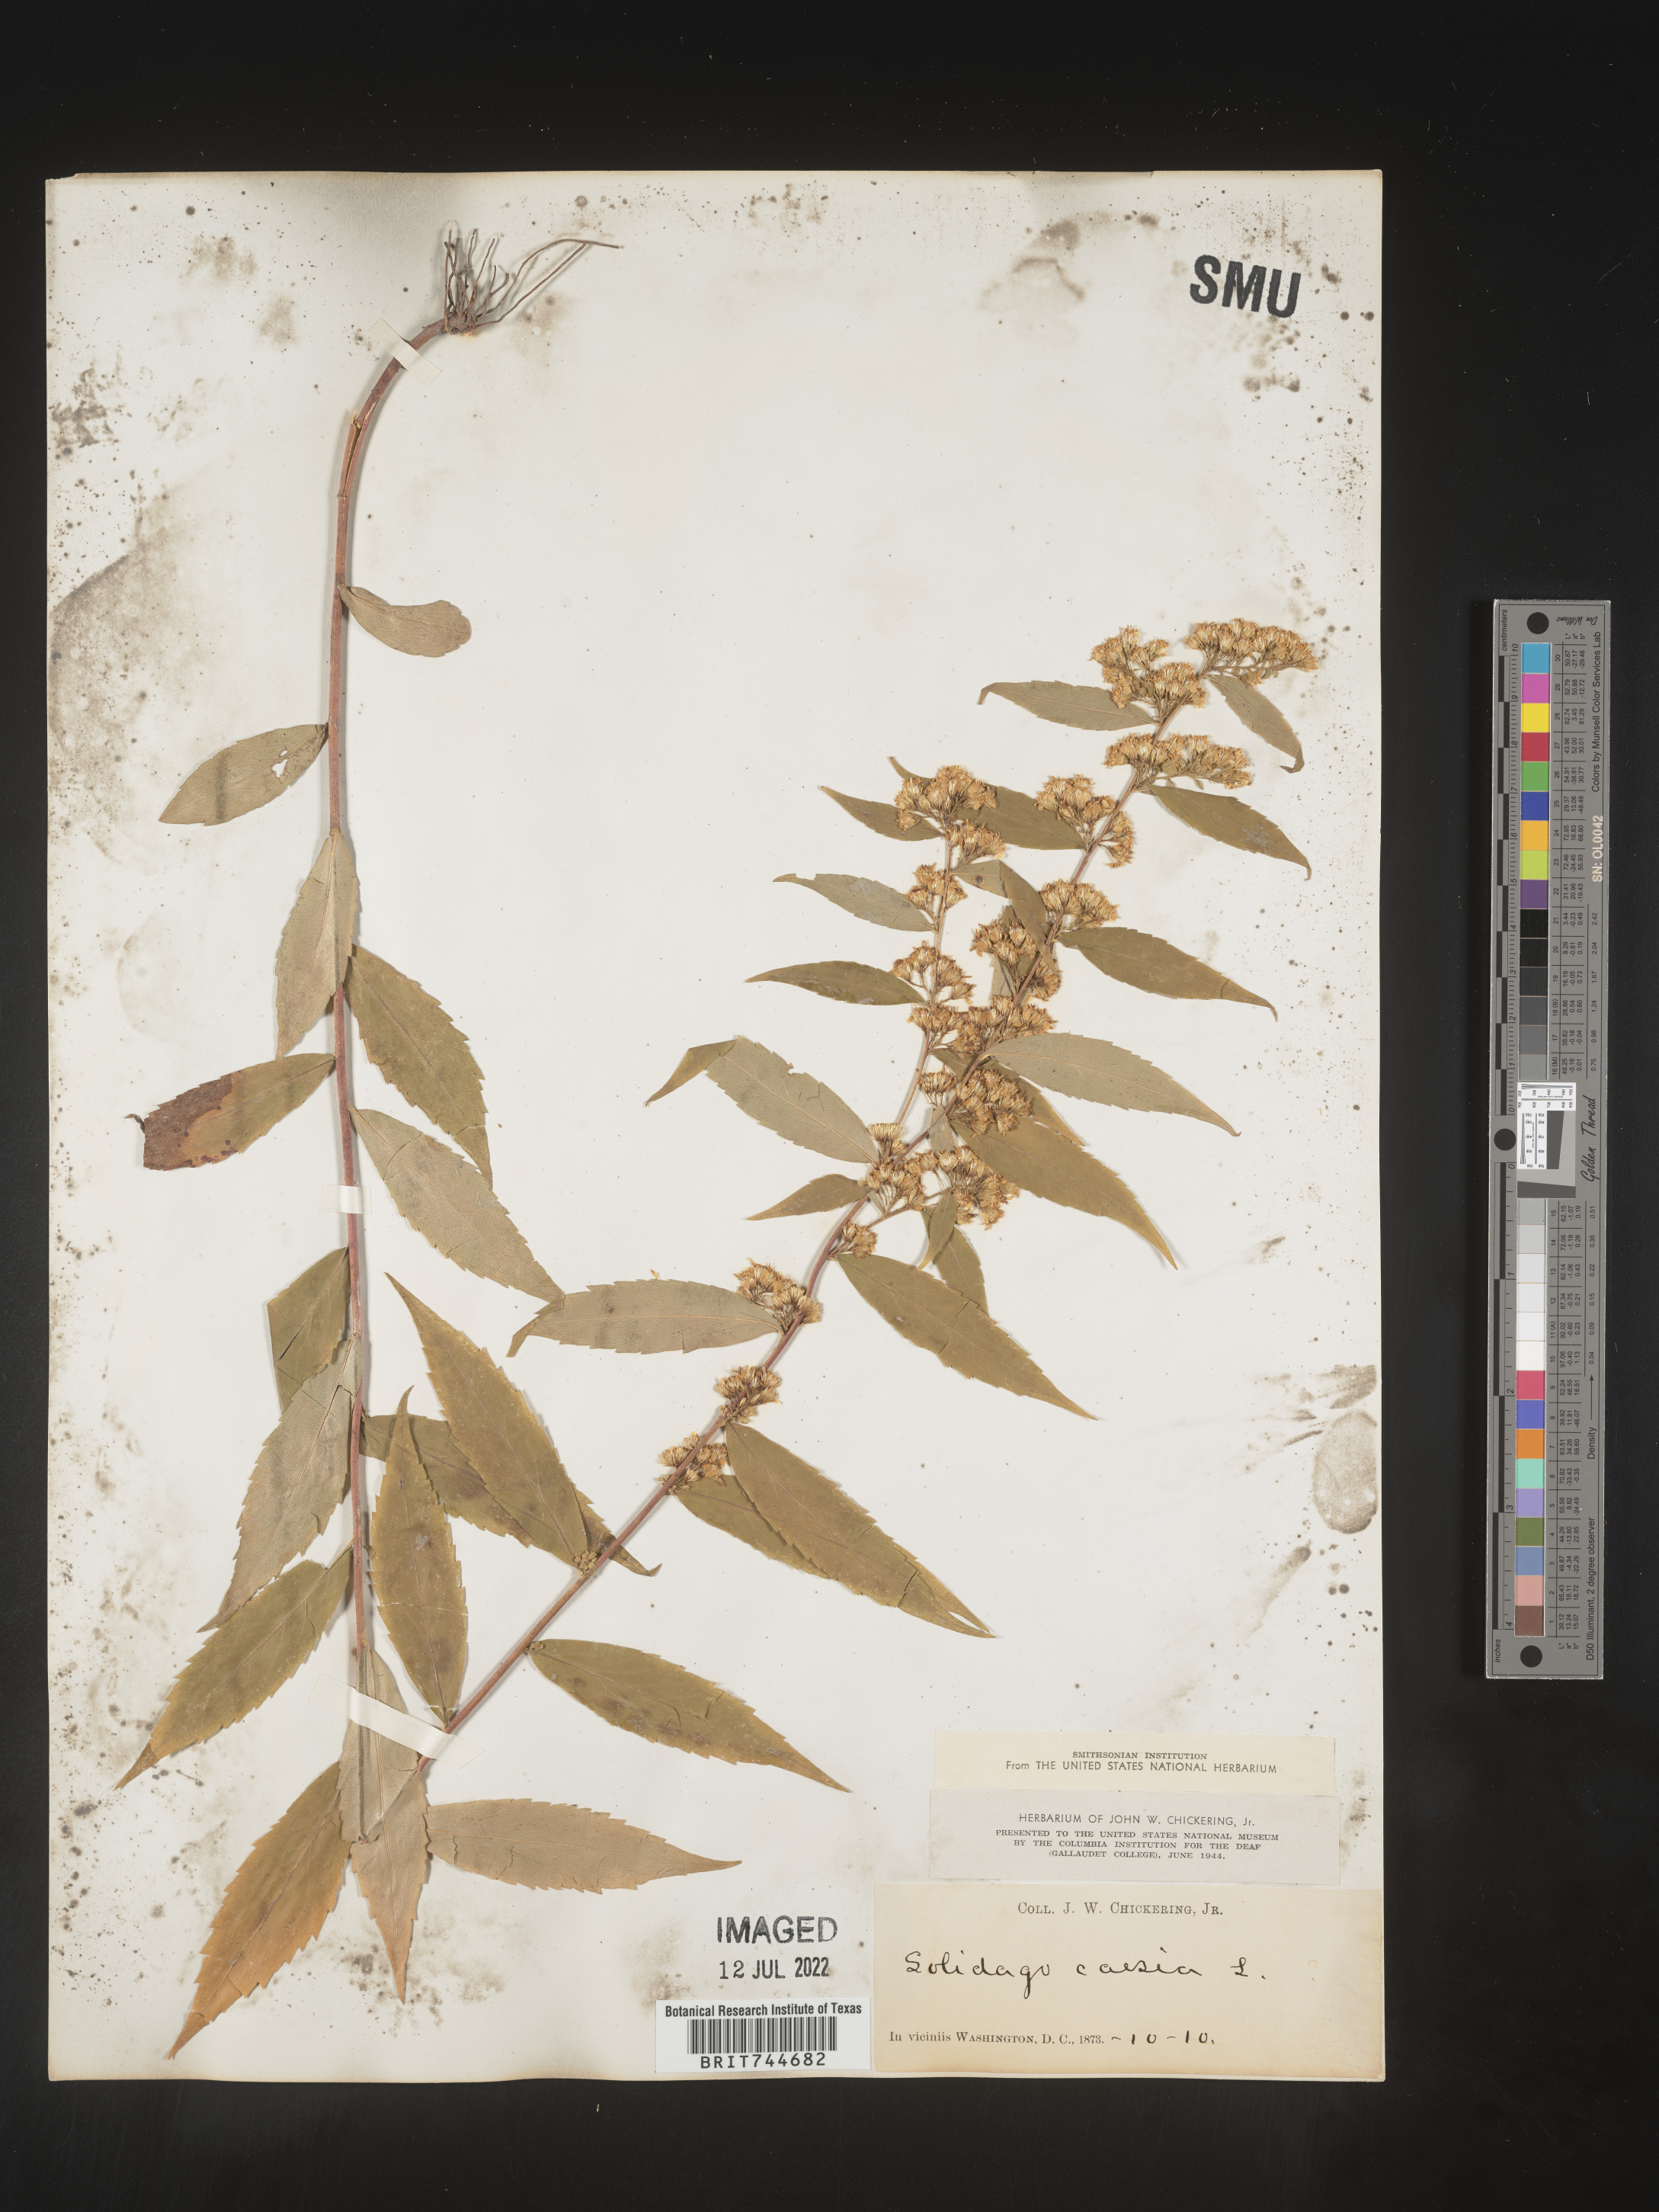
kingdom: Plantae
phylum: Tracheophyta
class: Magnoliopsida
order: Asterales
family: Asteraceae
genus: Solidago
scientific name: Solidago caesia
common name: Woodland goldenrod
